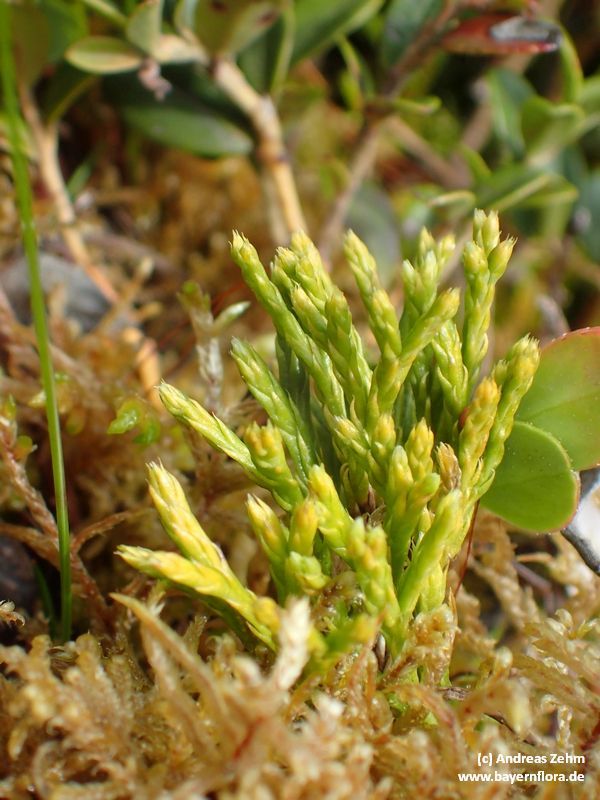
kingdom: Plantae
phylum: Tracheophyta
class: Lycopodiopsida
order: Lycopodiales
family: Lycopodiaceae
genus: Diphasiastrum
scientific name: Diphasiastrum tristachyum
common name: Blue ground-cedar
